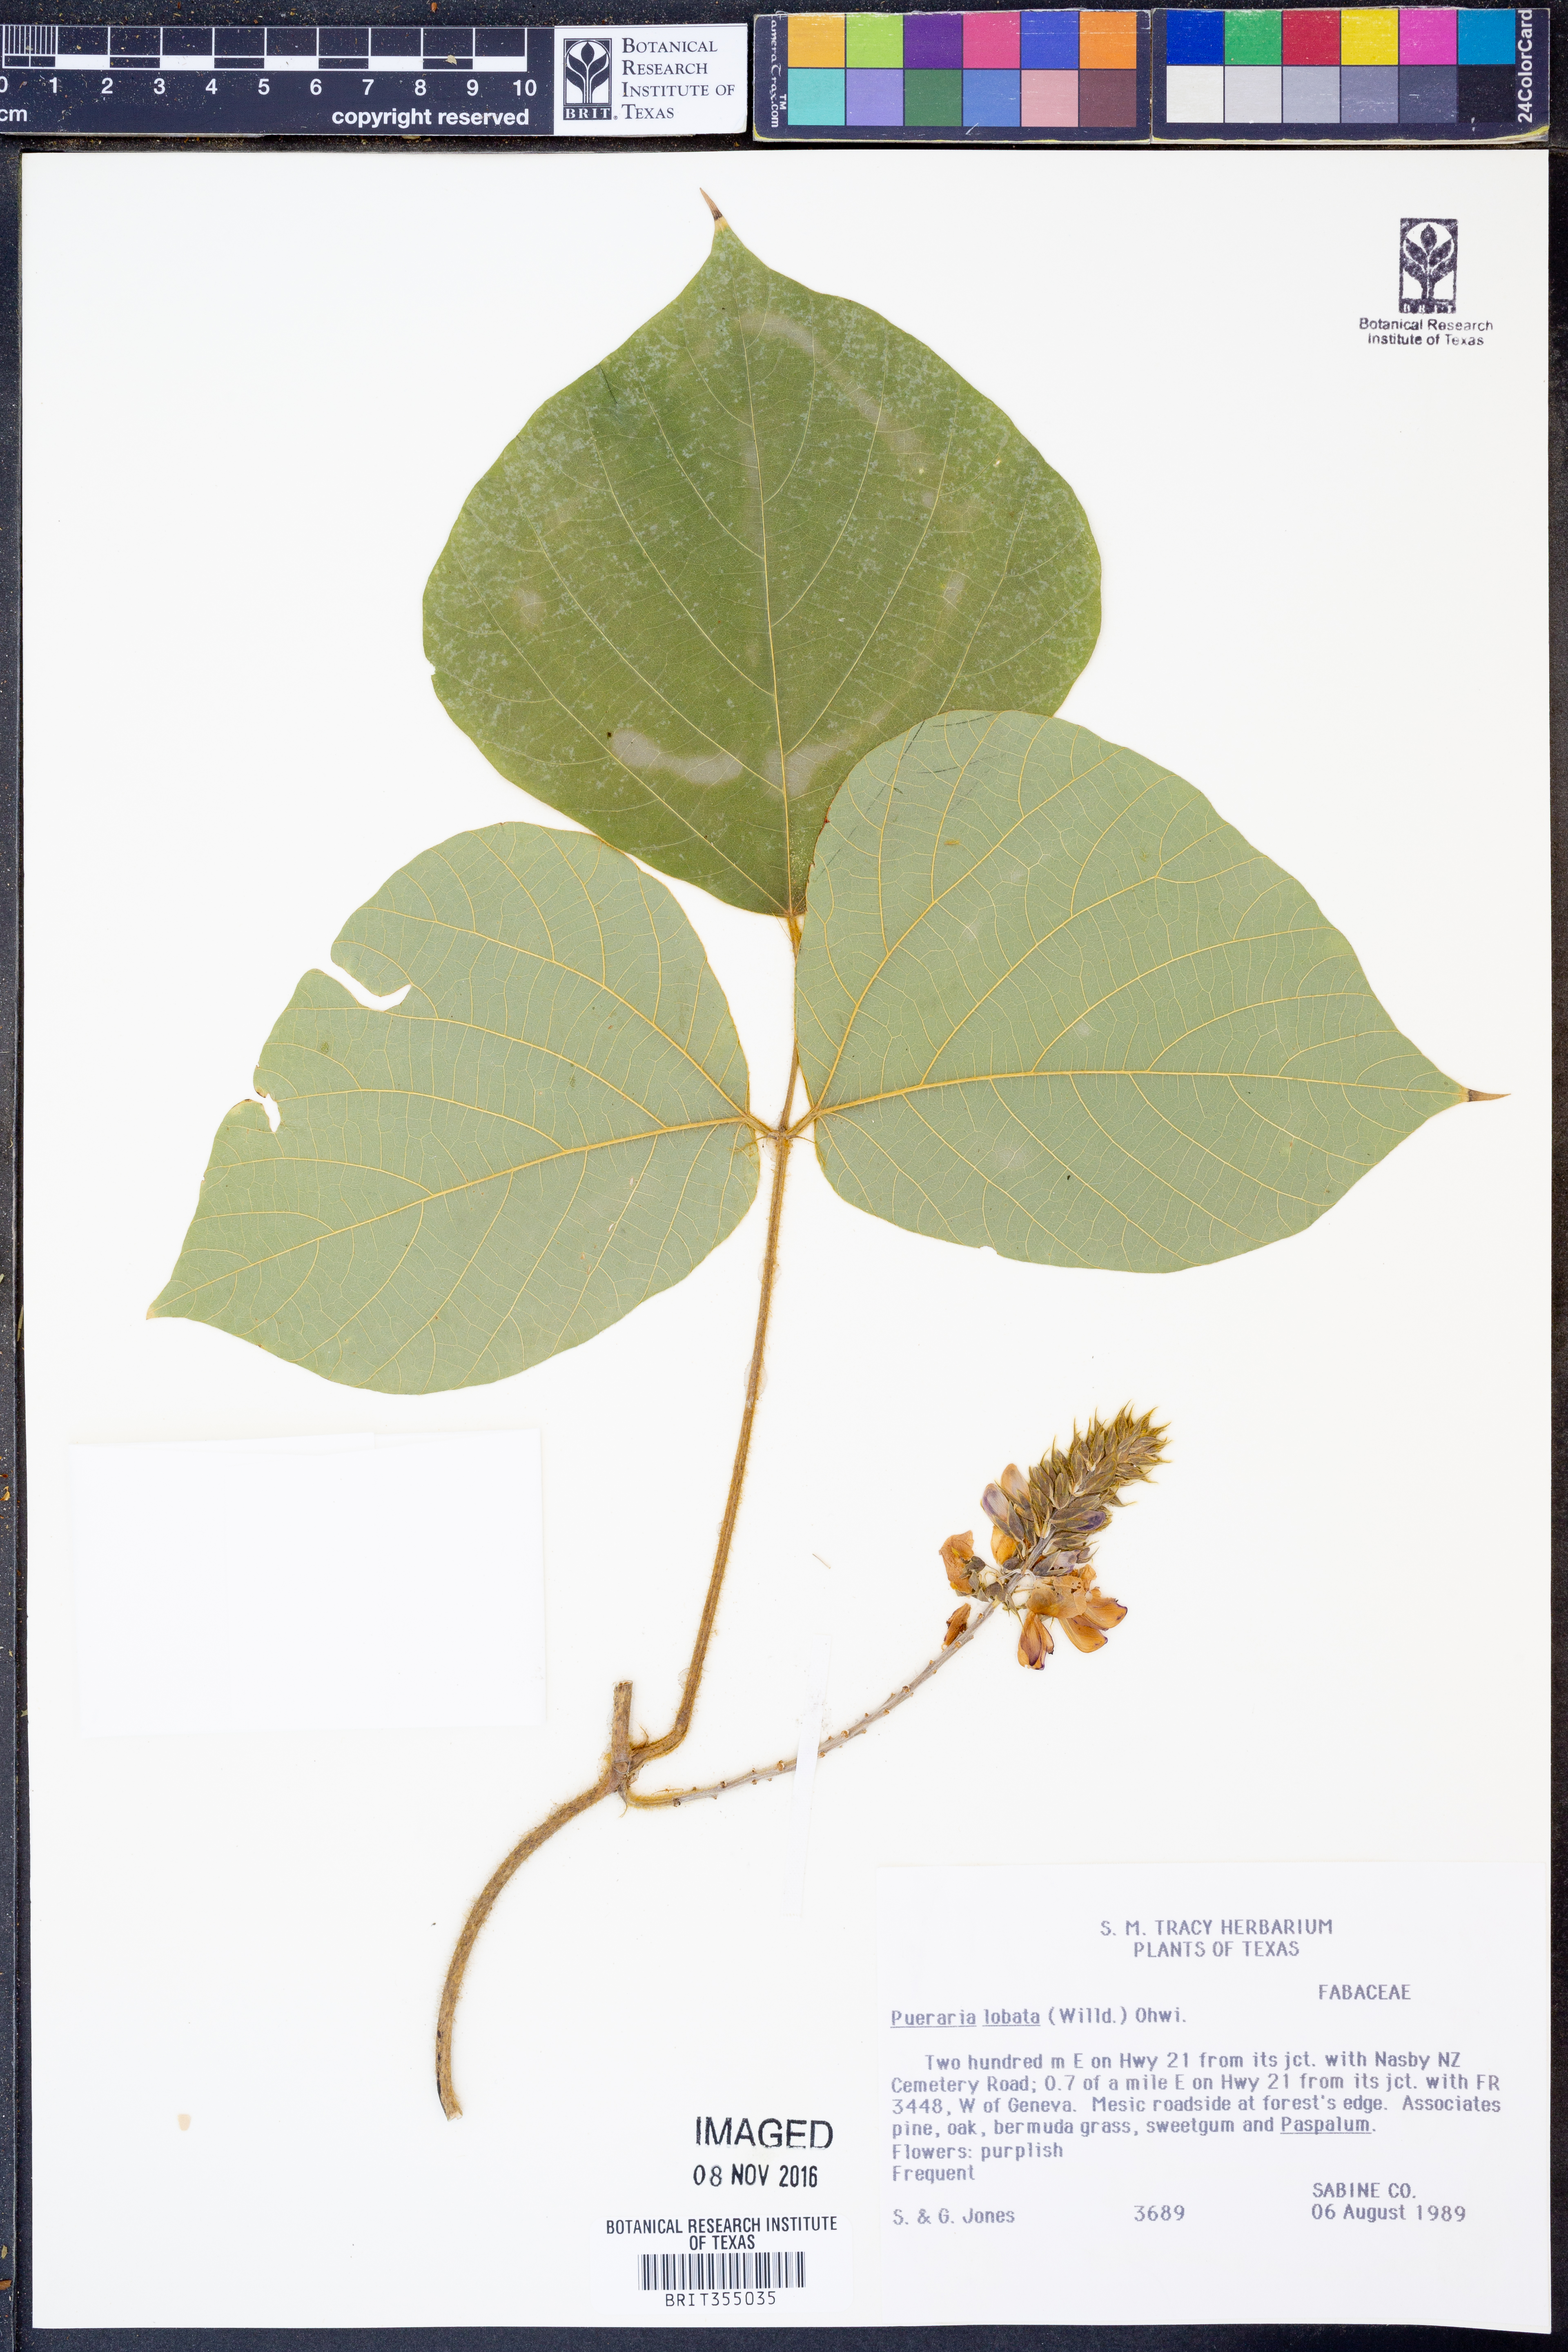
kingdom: Plantae
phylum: Tracheophyta
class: Magnoliopsida
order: Fabales
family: Fabaceae
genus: Pueraria
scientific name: Pueraria montana
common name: Kudzu
